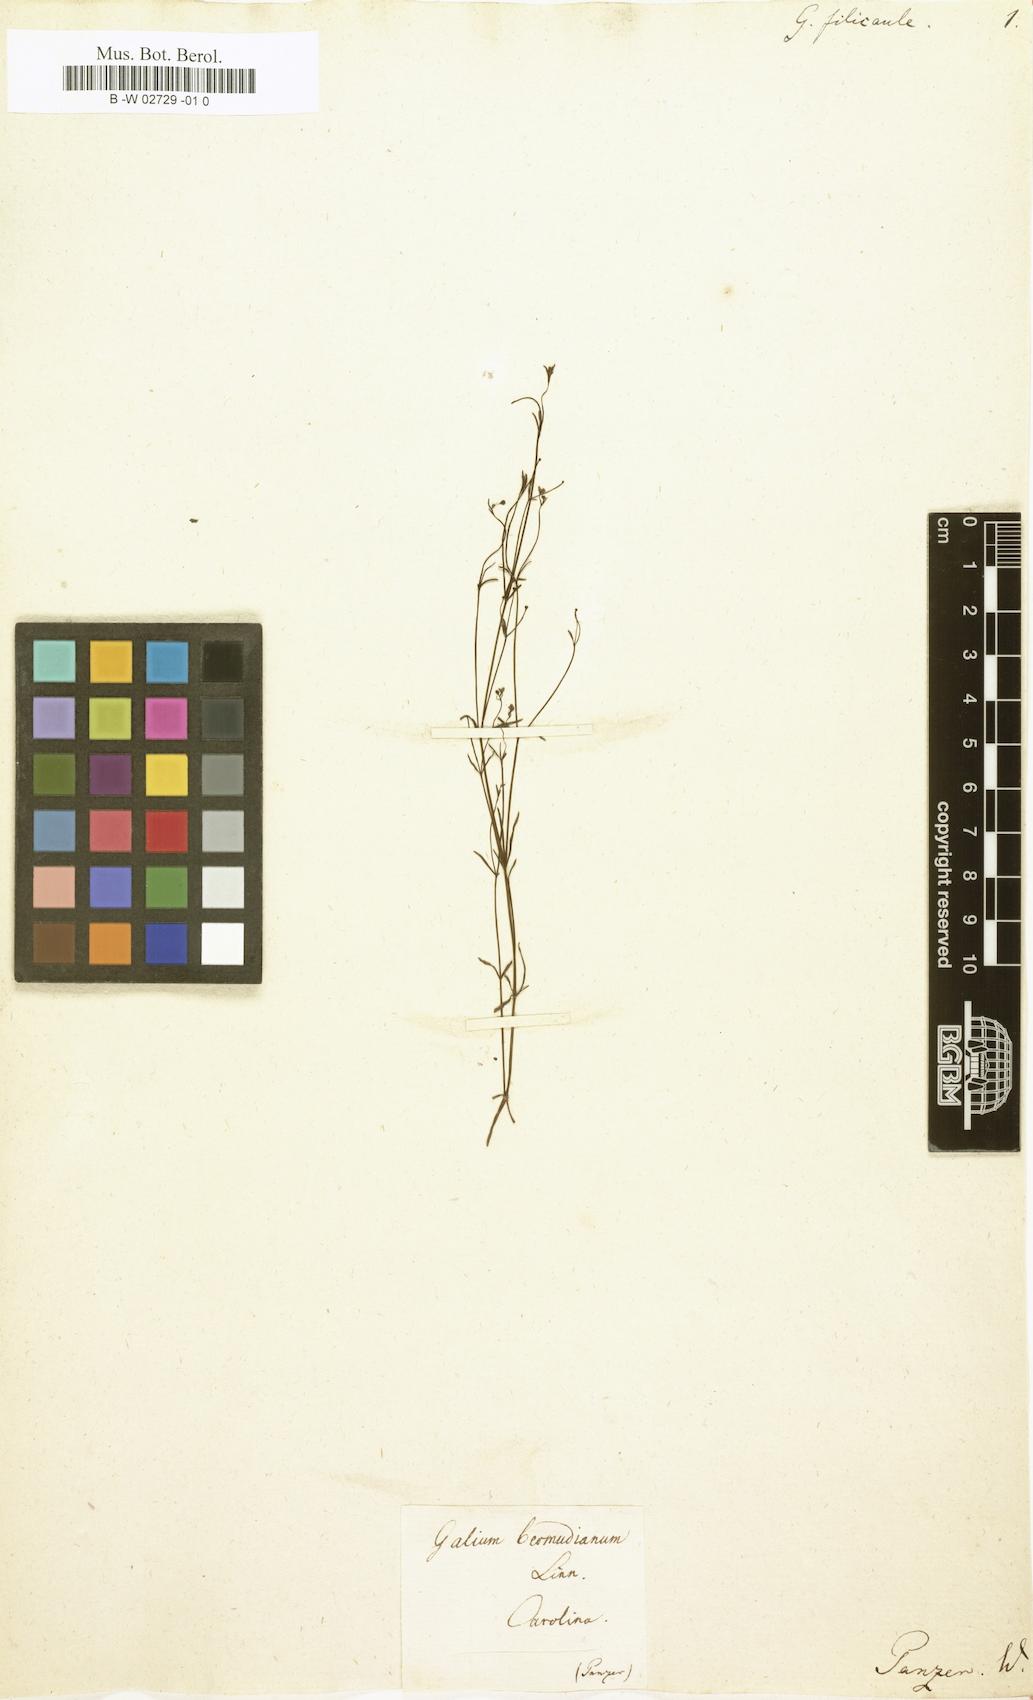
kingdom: Plantae
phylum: Tracheophyta
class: Magnoliopsida
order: Gentianales
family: Rubiaceae
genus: Galium
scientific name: Galium filicaule
